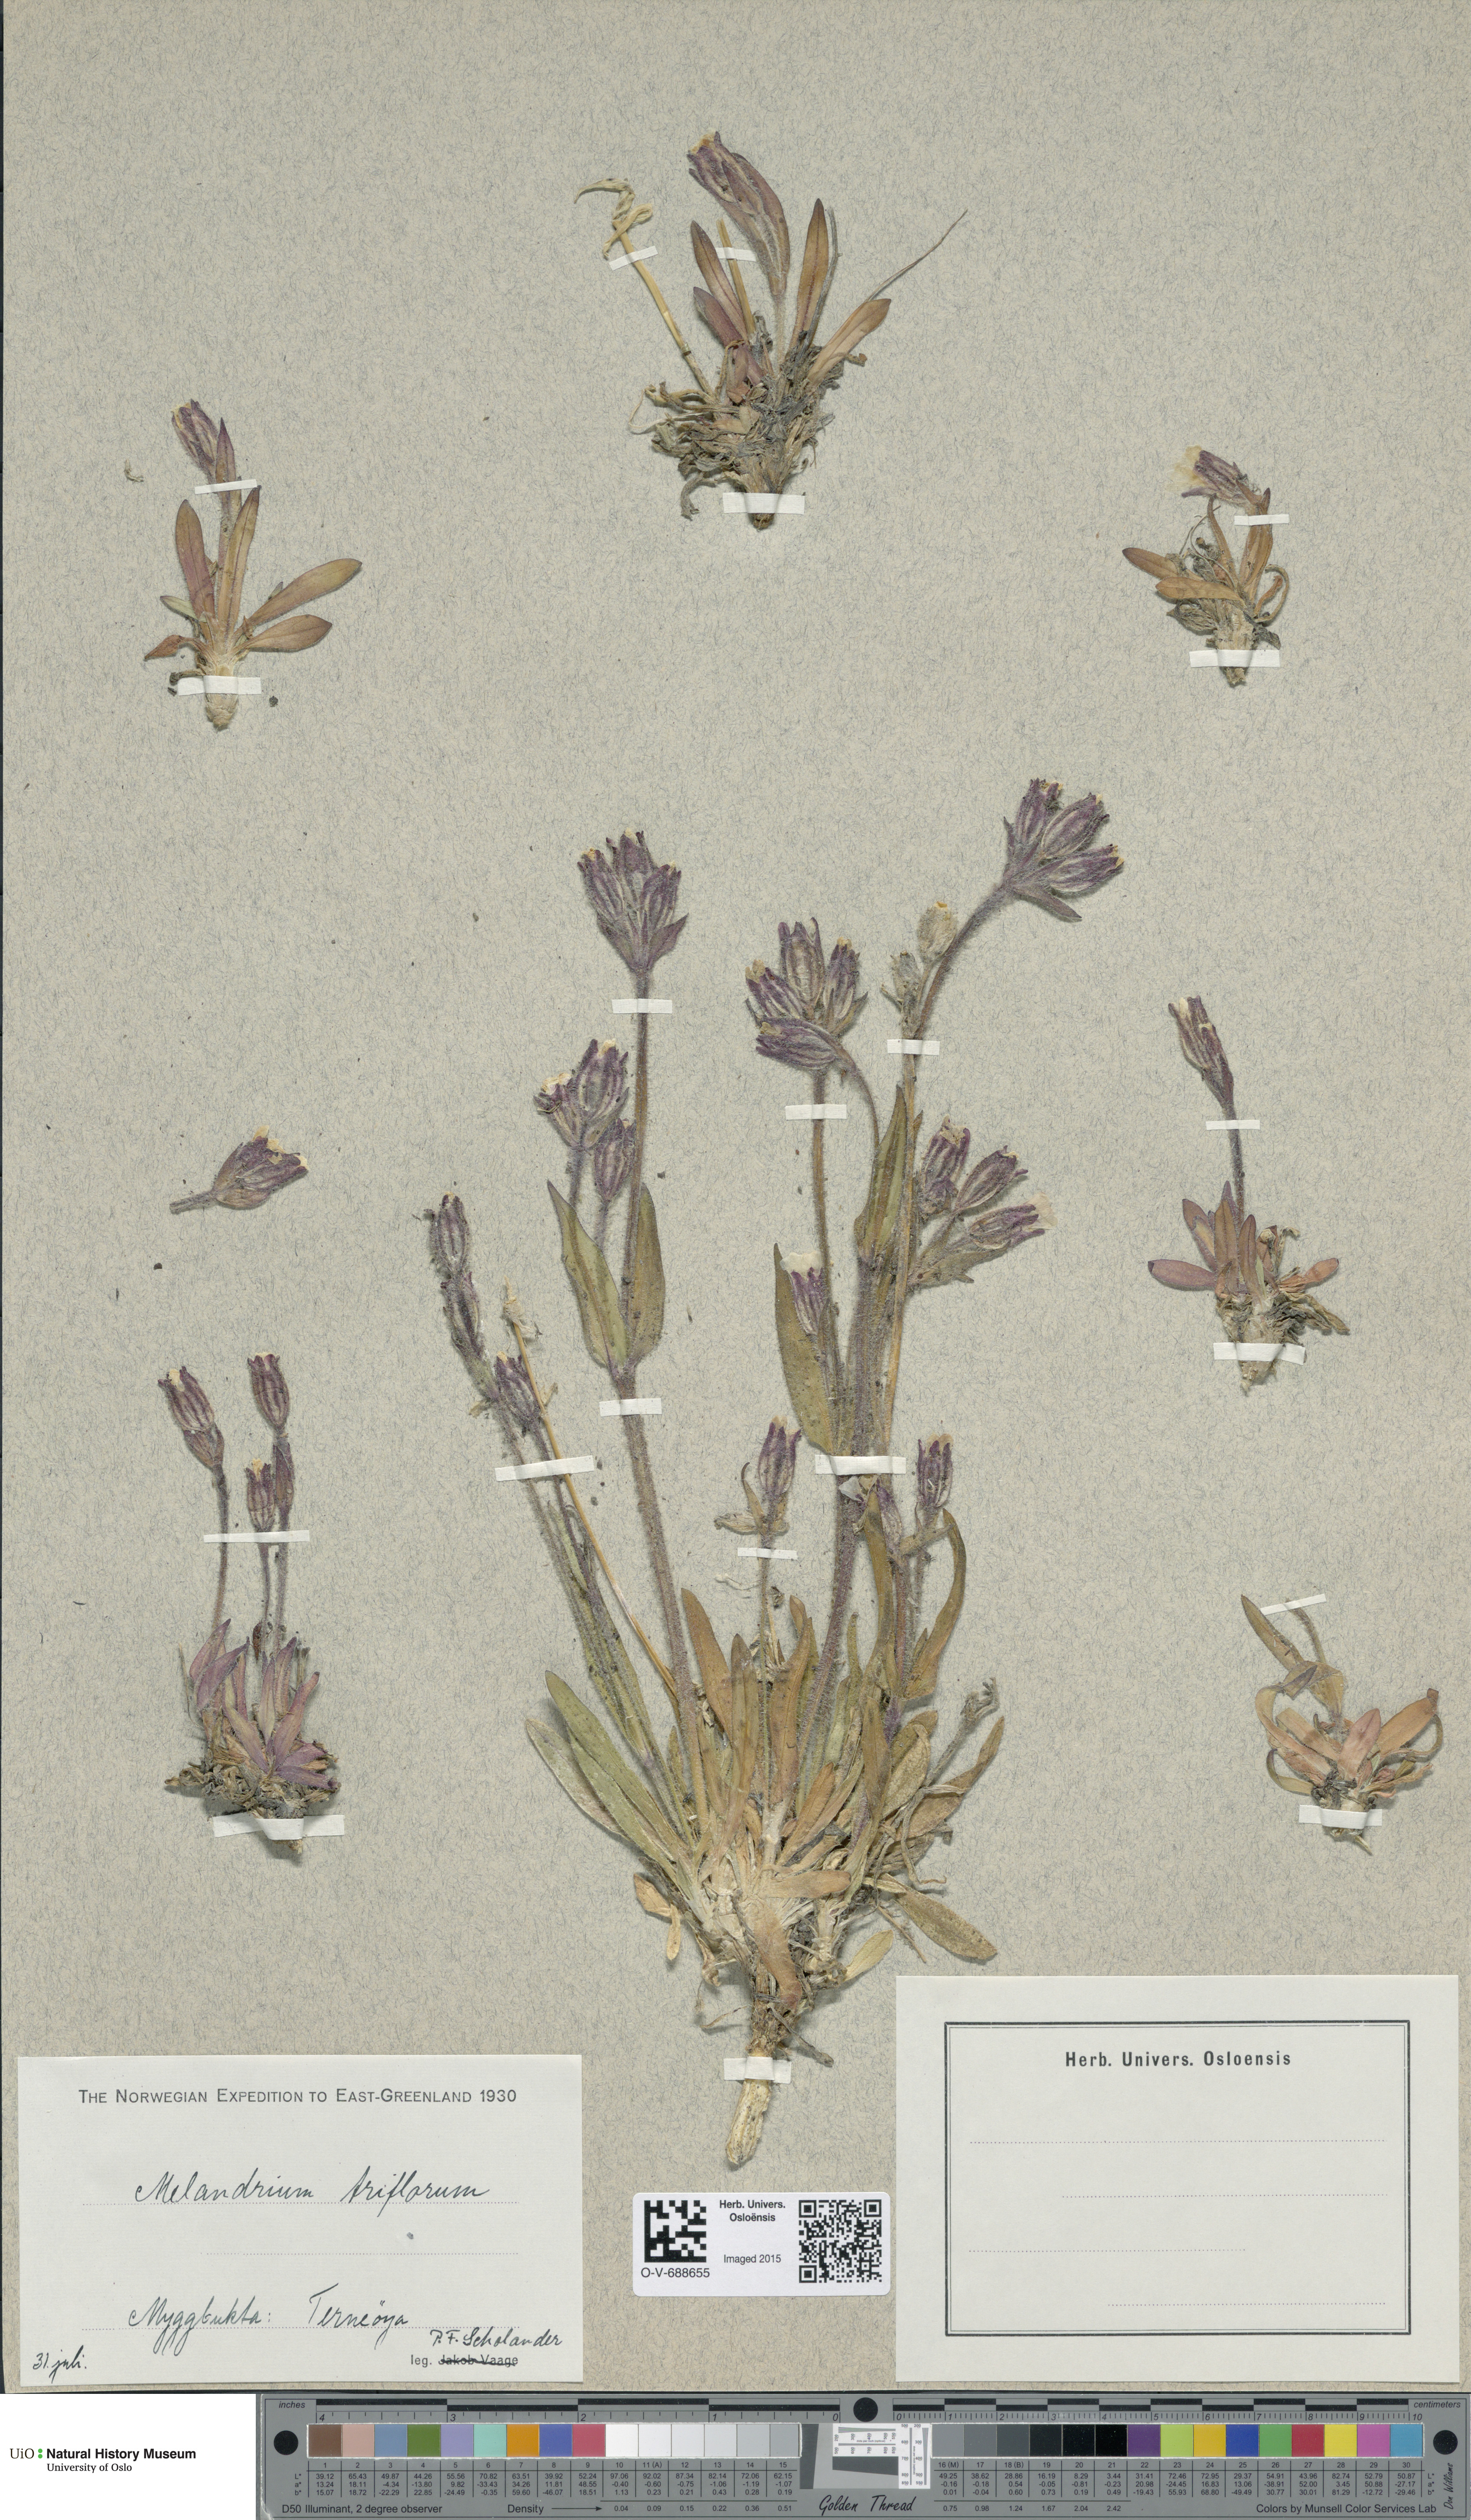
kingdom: Plantae
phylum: Tracheophyta
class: Magnoliopsida
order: Caryophyllales
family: Caryophyllaceae
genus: Silene
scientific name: Silene sorensenis
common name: Sorensen's campion
